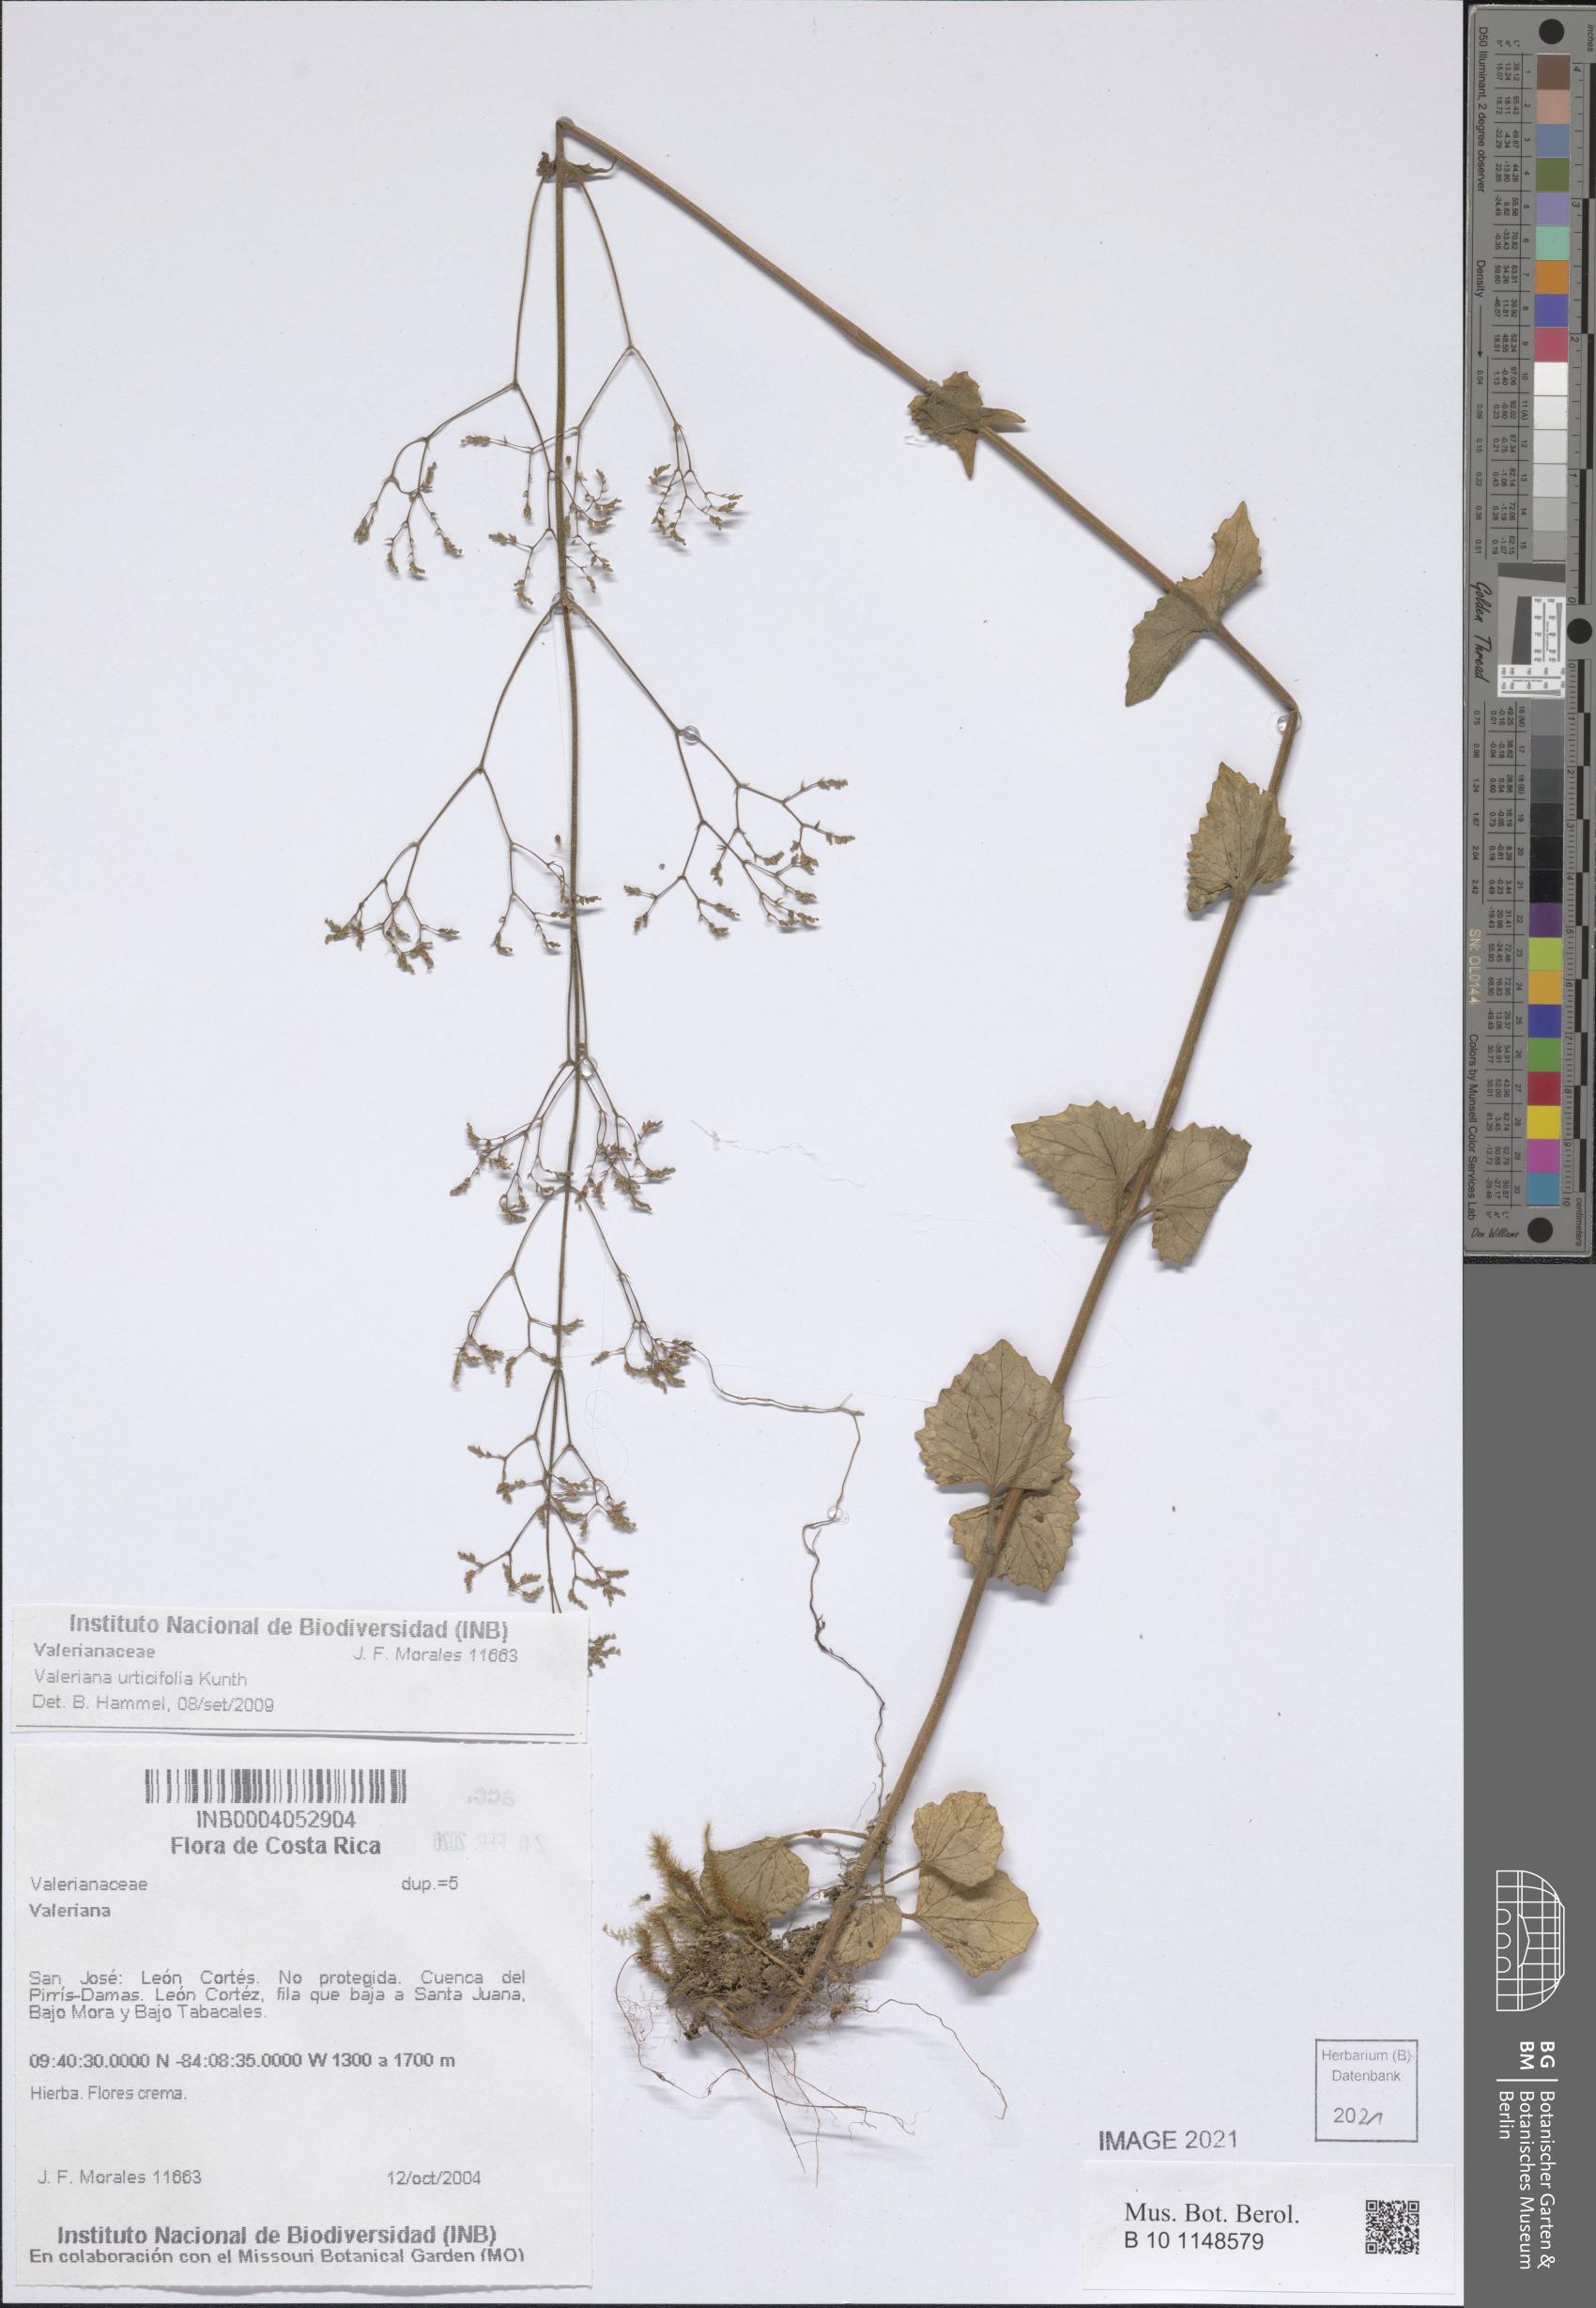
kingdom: Plantae
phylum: Tracheophyta
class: Magnoliopsida
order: Dipsacales
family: Caprifoliaceae
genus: Valeriana
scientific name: Valeriana urticifolia
